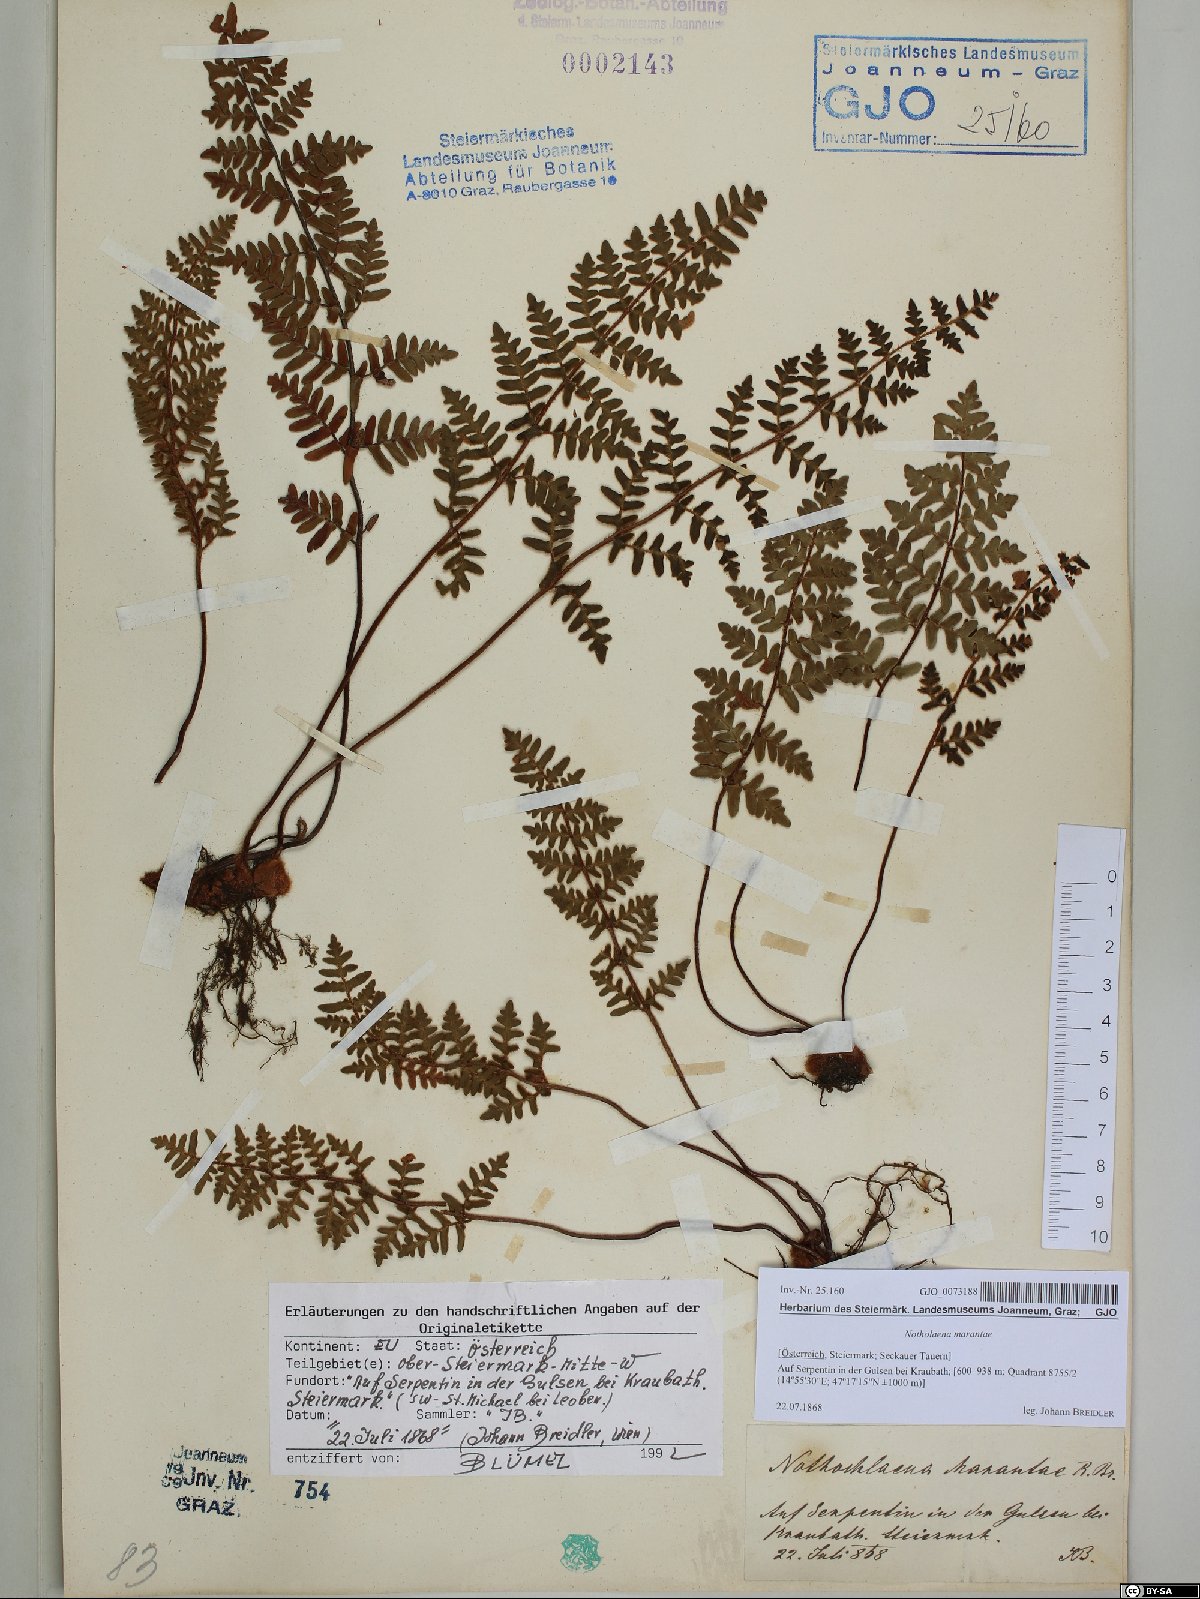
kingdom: Plantae
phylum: Tracheophyta
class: Polypodiopsida
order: Polypodiales
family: Pteridaceae
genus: Paragymnopteris
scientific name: Paragymnopteris marantae
